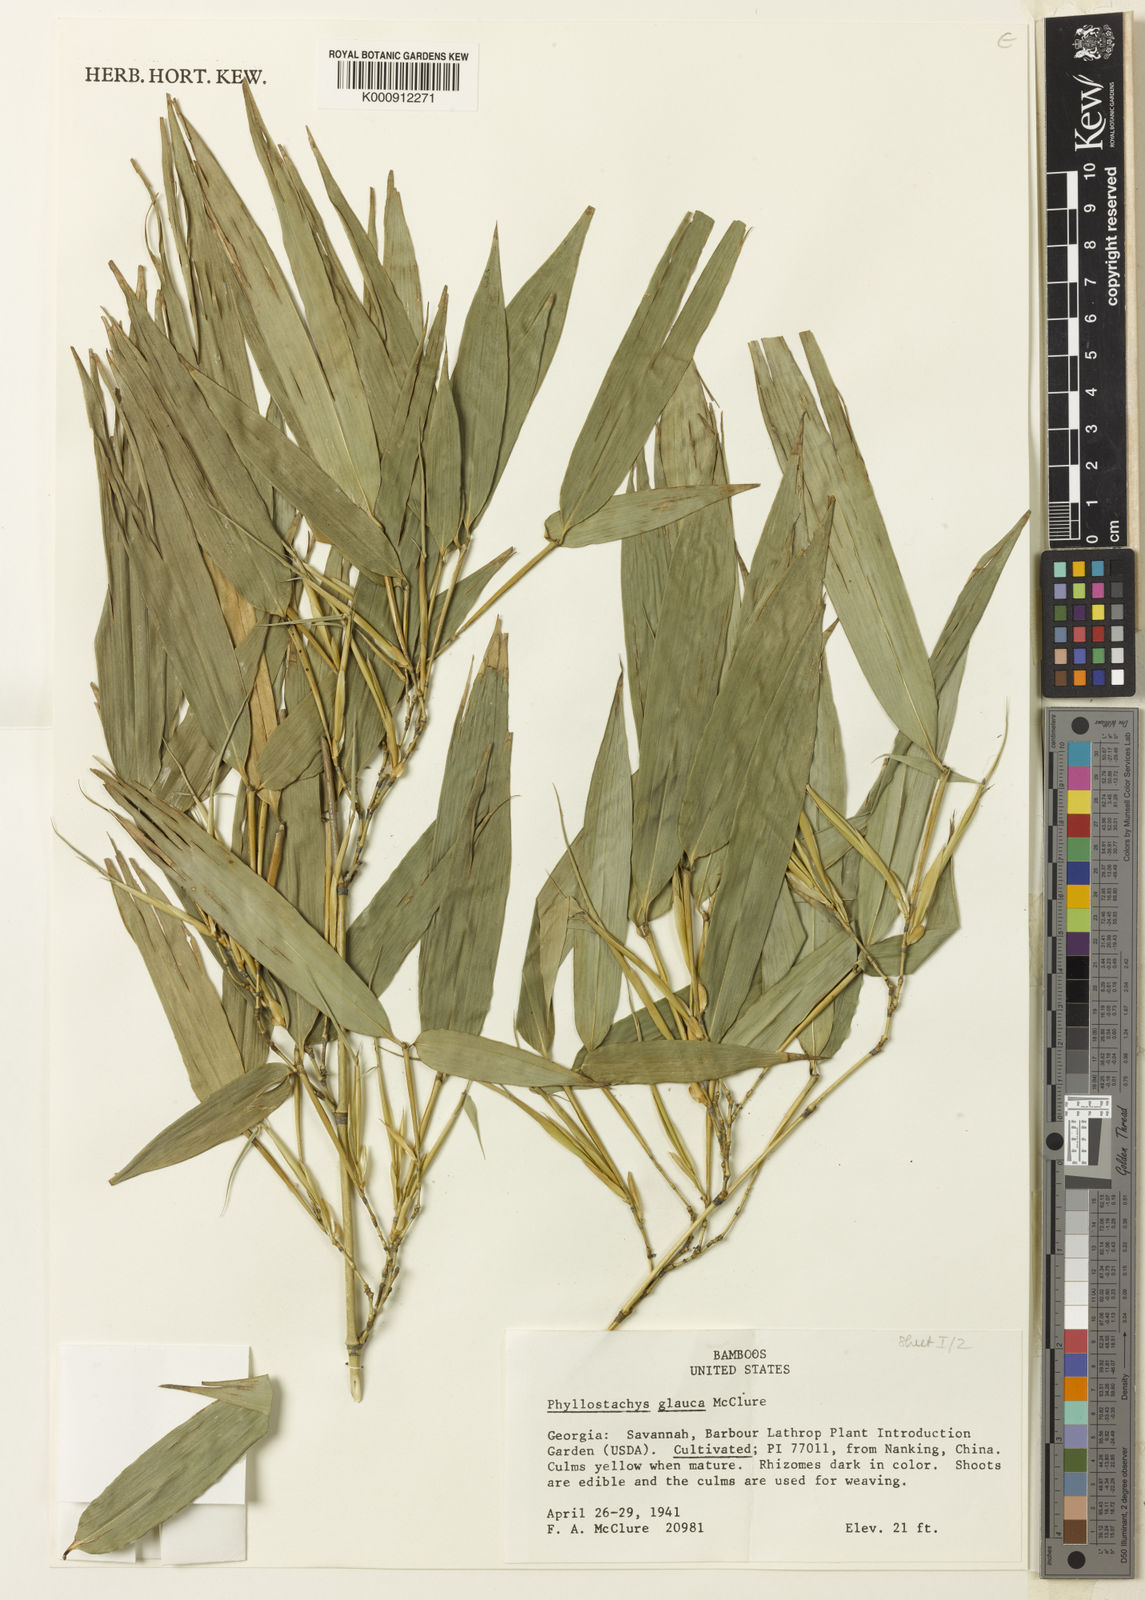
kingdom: Plantae
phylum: Tracheophyta
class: Liliopsida
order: Poales
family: Poaceae
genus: Phyllostachys
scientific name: Phyllostachys glauca
